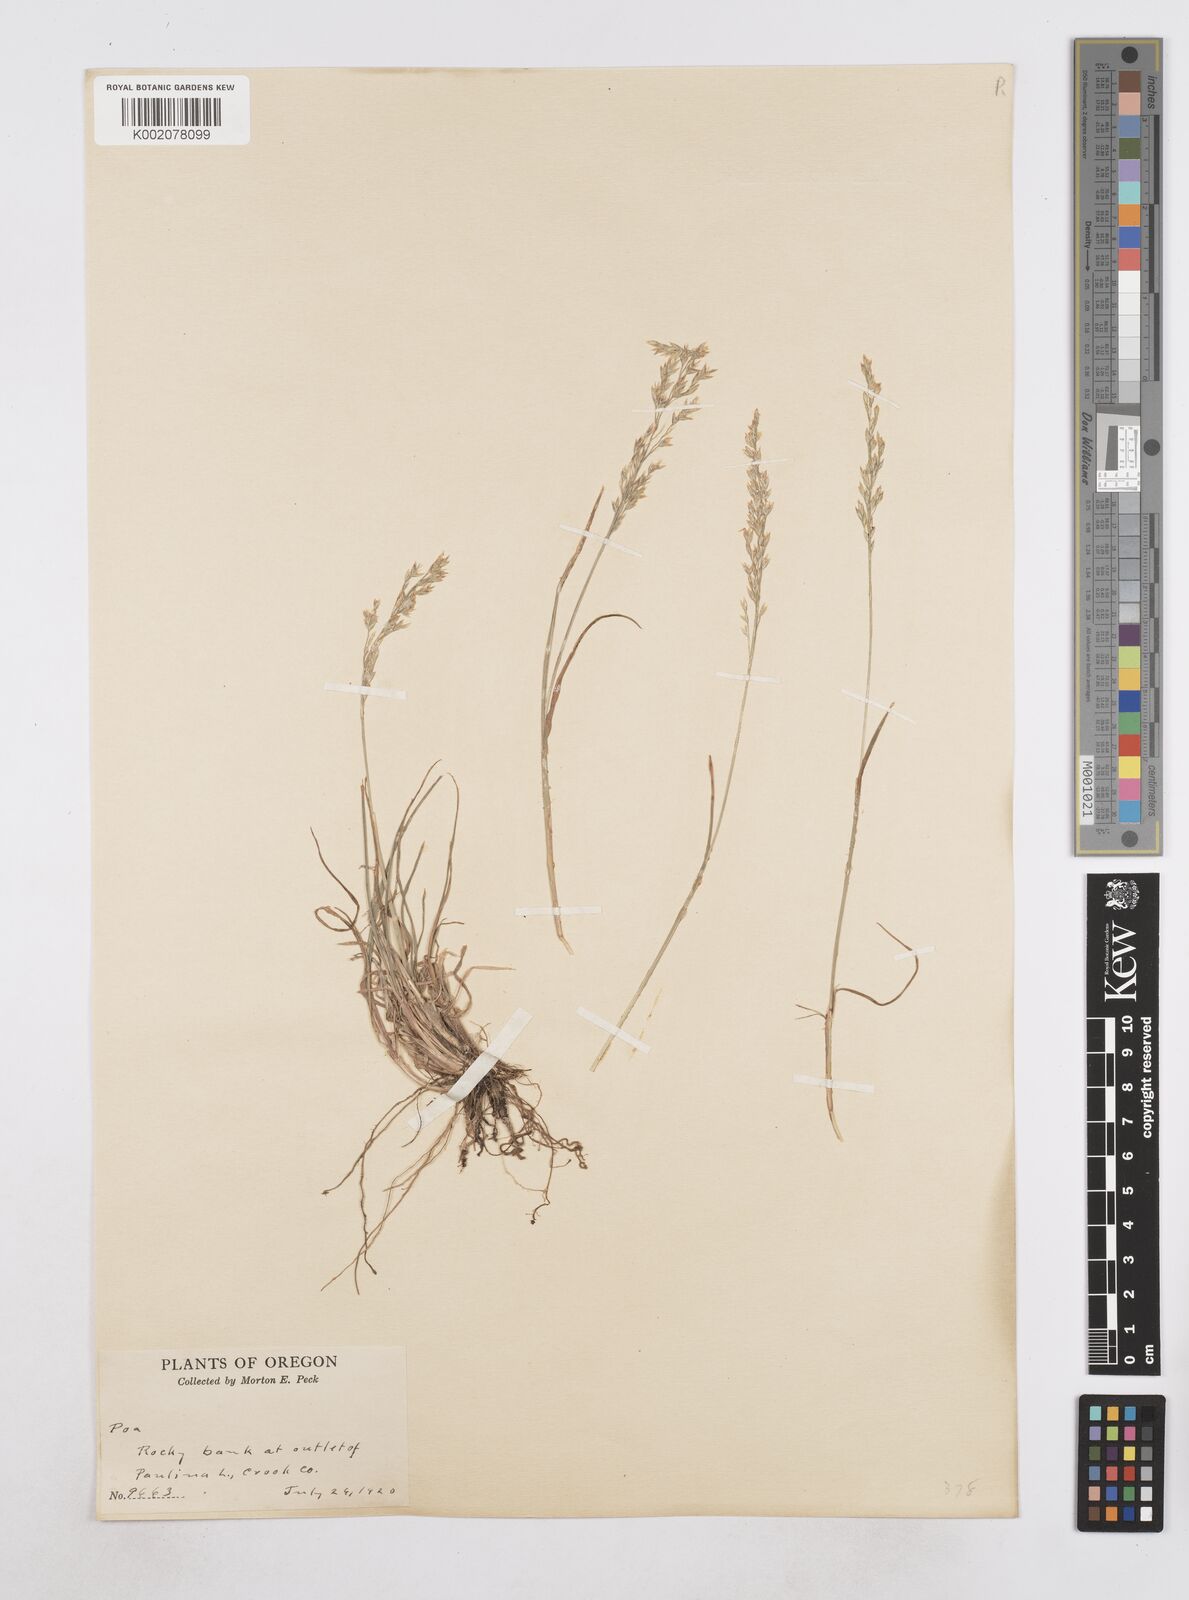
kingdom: Plantae
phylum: Tracheophyta
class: Liliopsida
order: Poales
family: Poaceae
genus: Poa
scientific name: Poa
